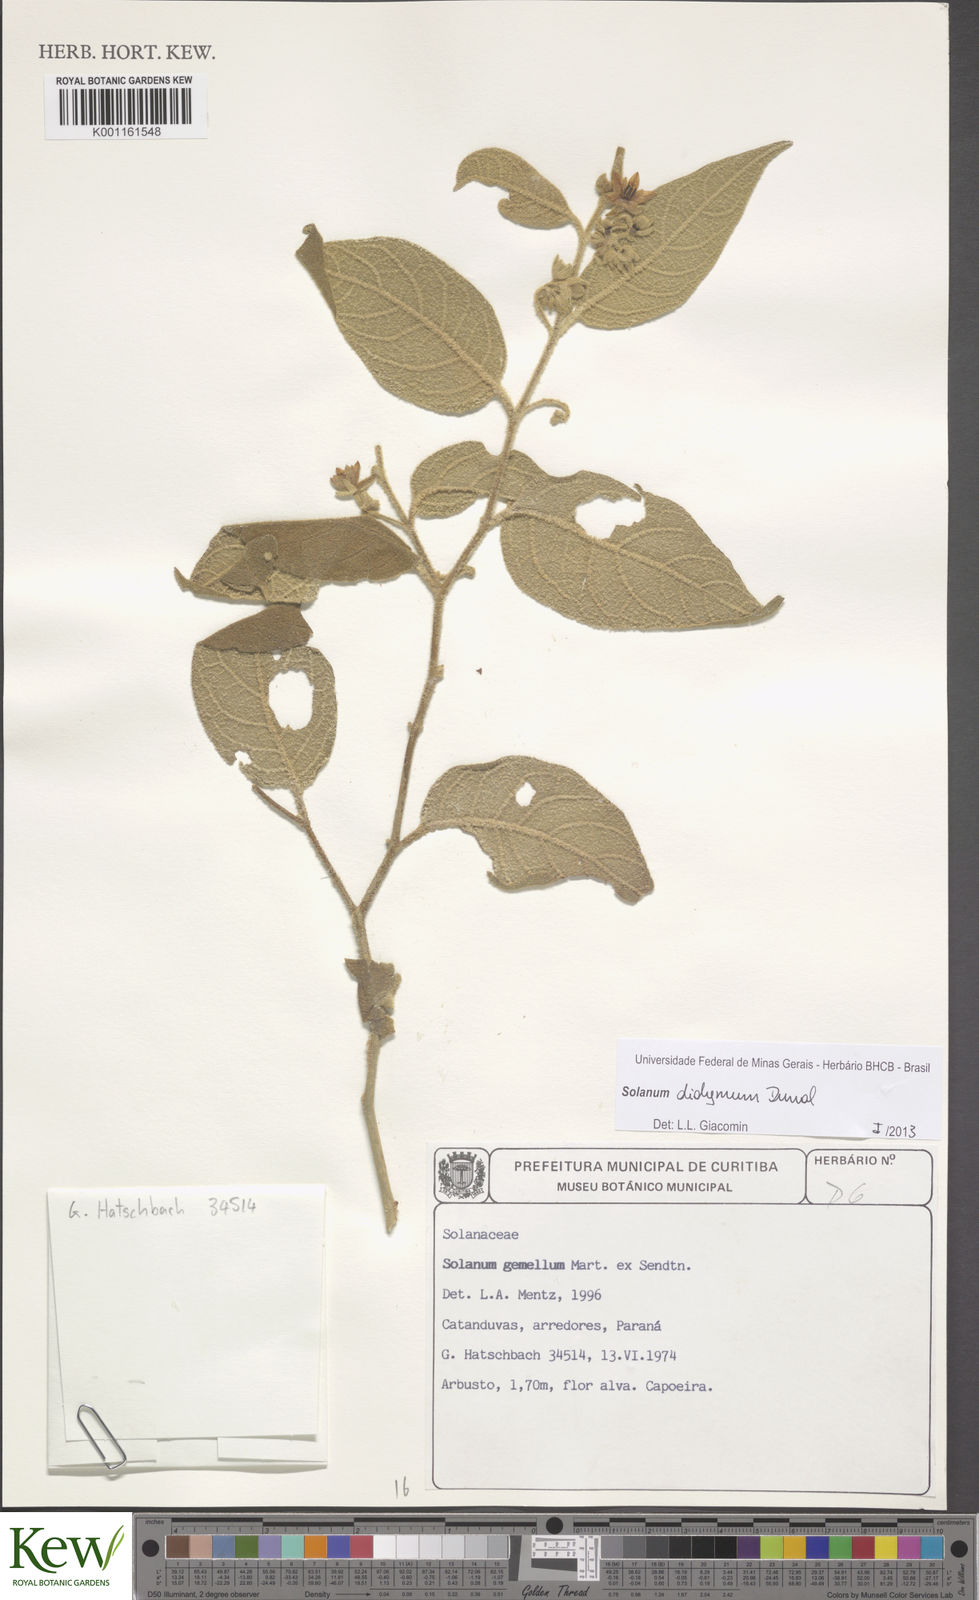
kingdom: Plantae
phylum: Tracheophyta
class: Magnoliopsida
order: Solanales
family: Solanaceae
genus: Solanum
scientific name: Solanum
